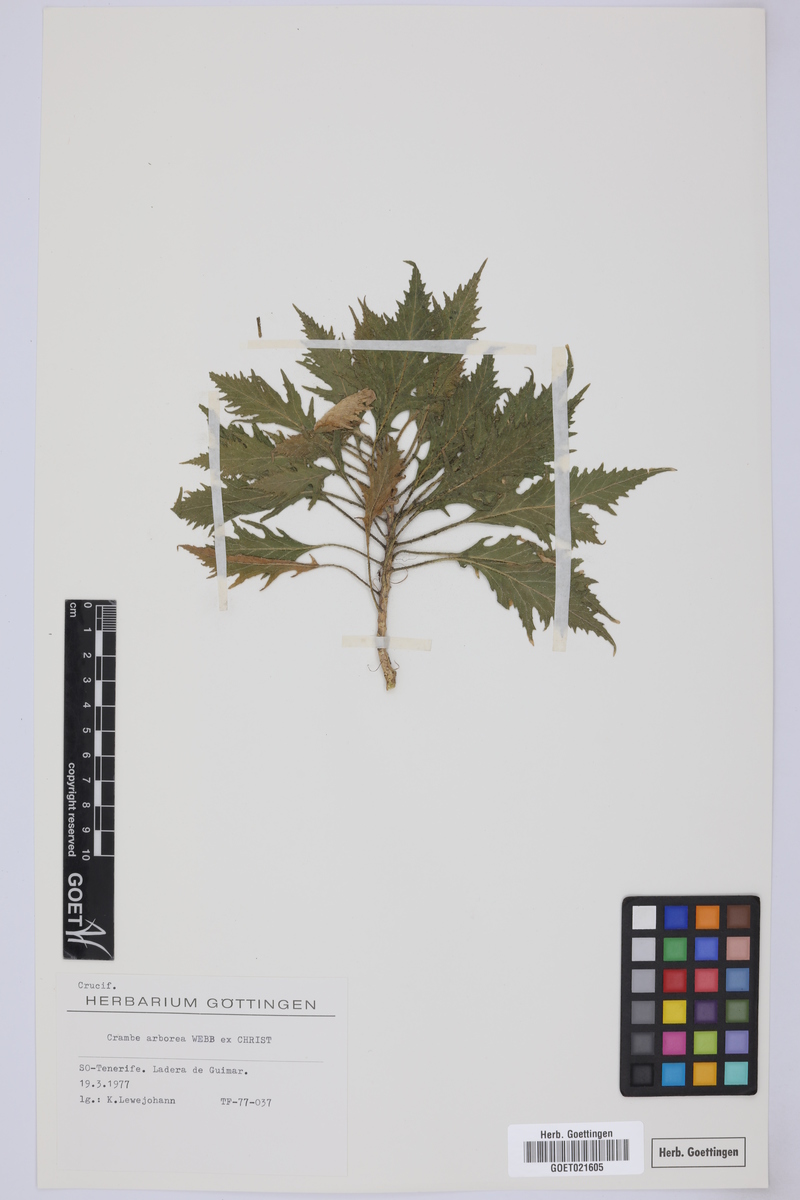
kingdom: Plantae
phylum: Tracheophyta
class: Magnoliopsida
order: Brassicales
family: Brassicaceae
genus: Crambe
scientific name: Crambe arborea
